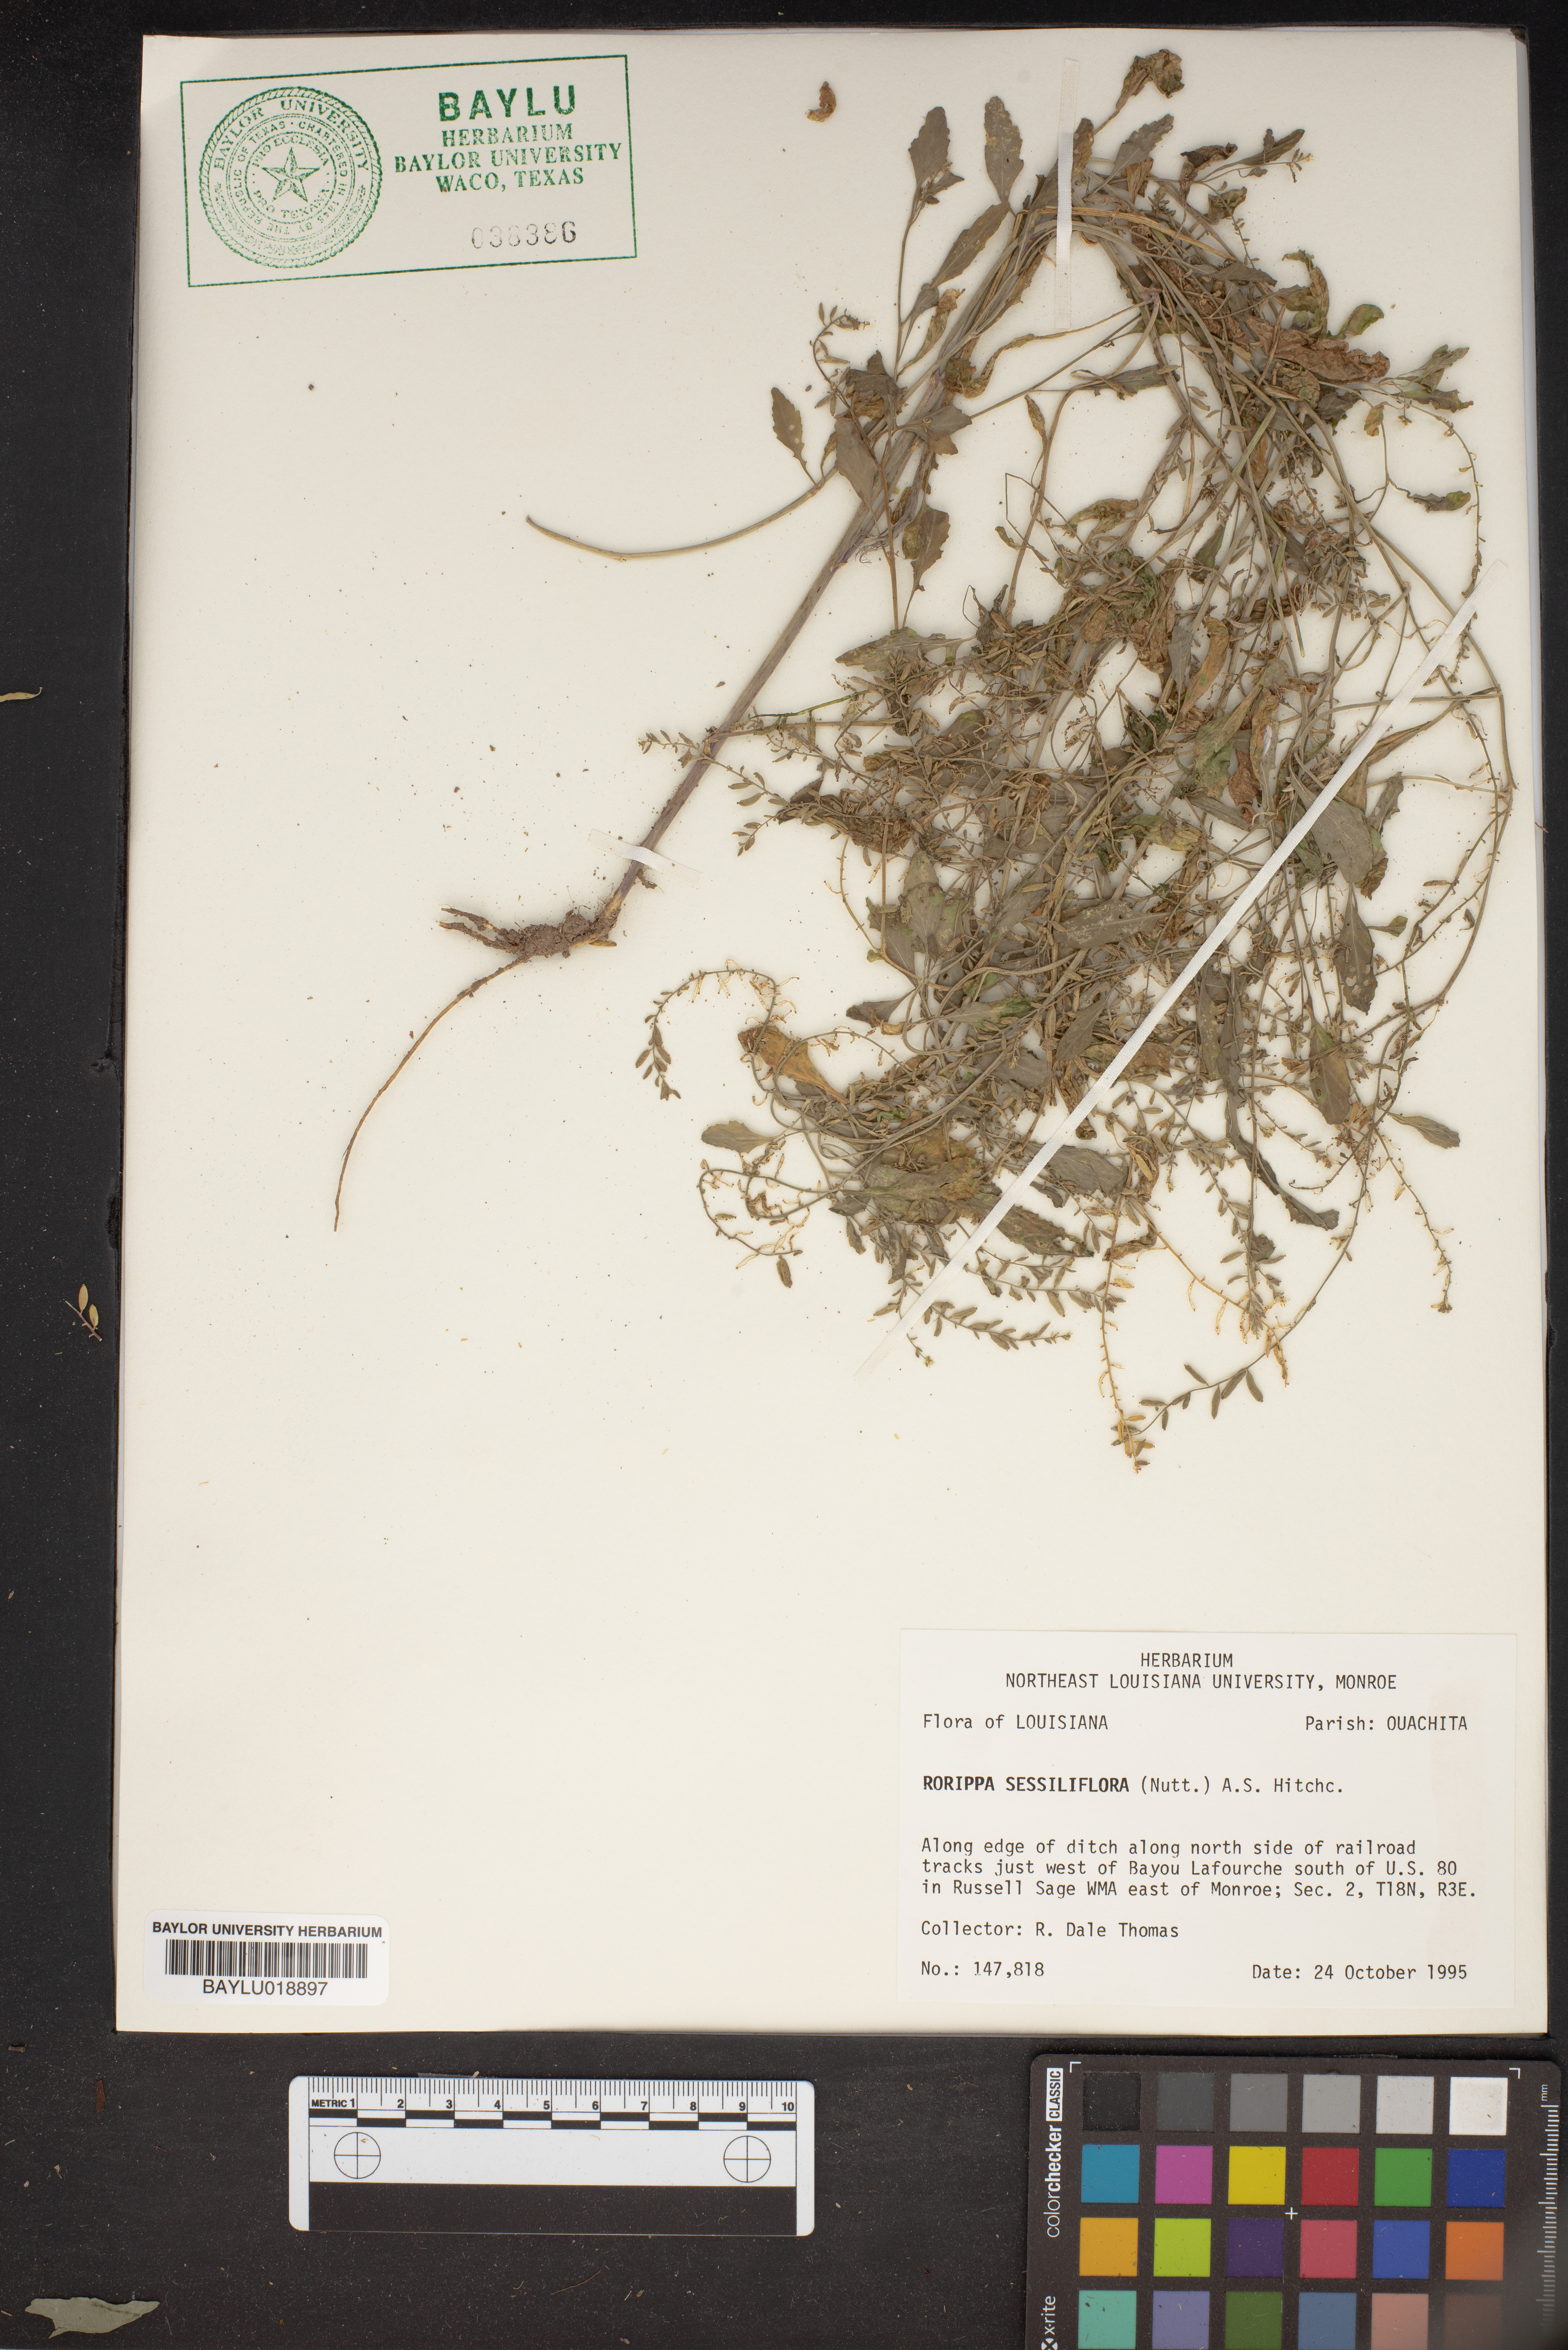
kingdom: Plantae
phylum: Tracheophyta
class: Magnoliopsida
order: Brassicales
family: Brassicaceae
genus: Rorippa
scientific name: Rorippa sessiliflora
